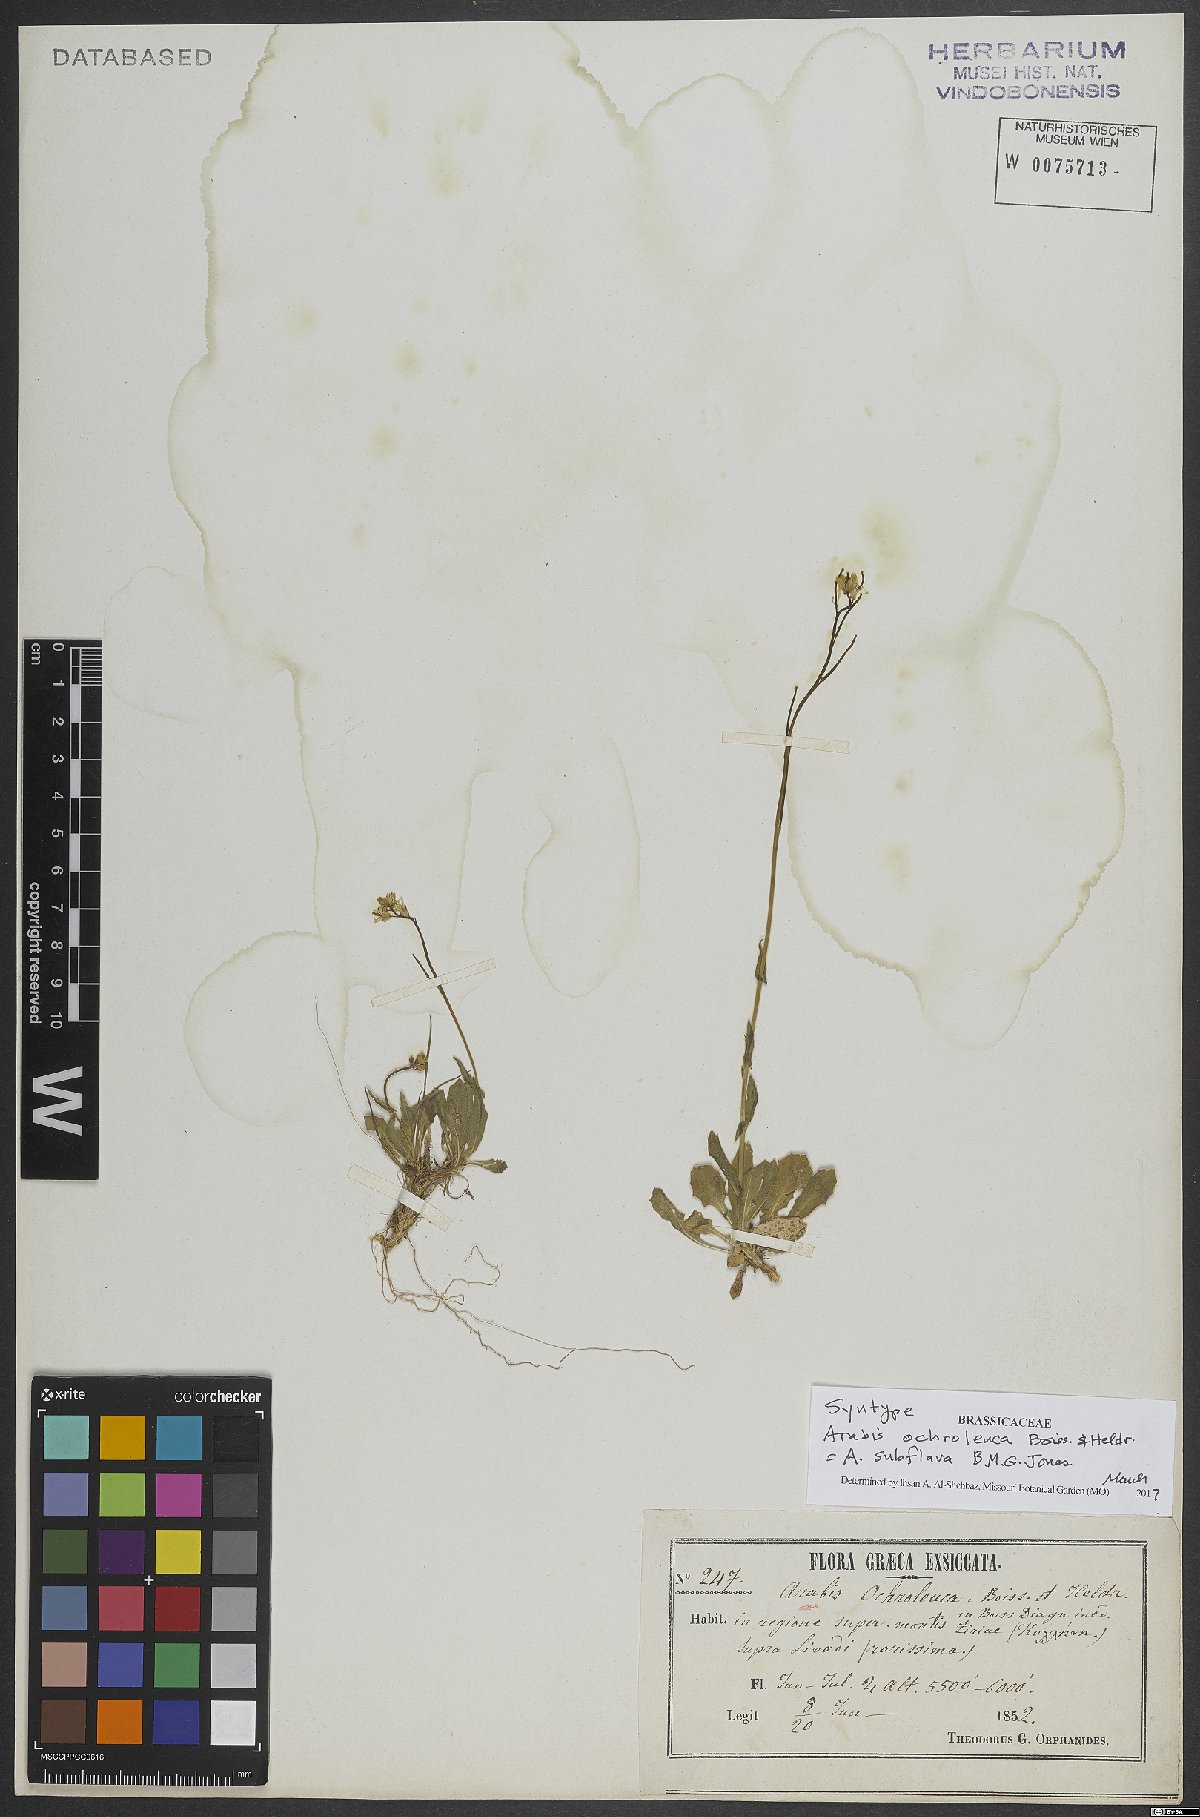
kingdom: Plantae
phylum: Tracheophyta
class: Magnoliopsida
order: Brassicales
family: Brassicaceae
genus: Arabis
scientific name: Arabis subflava
